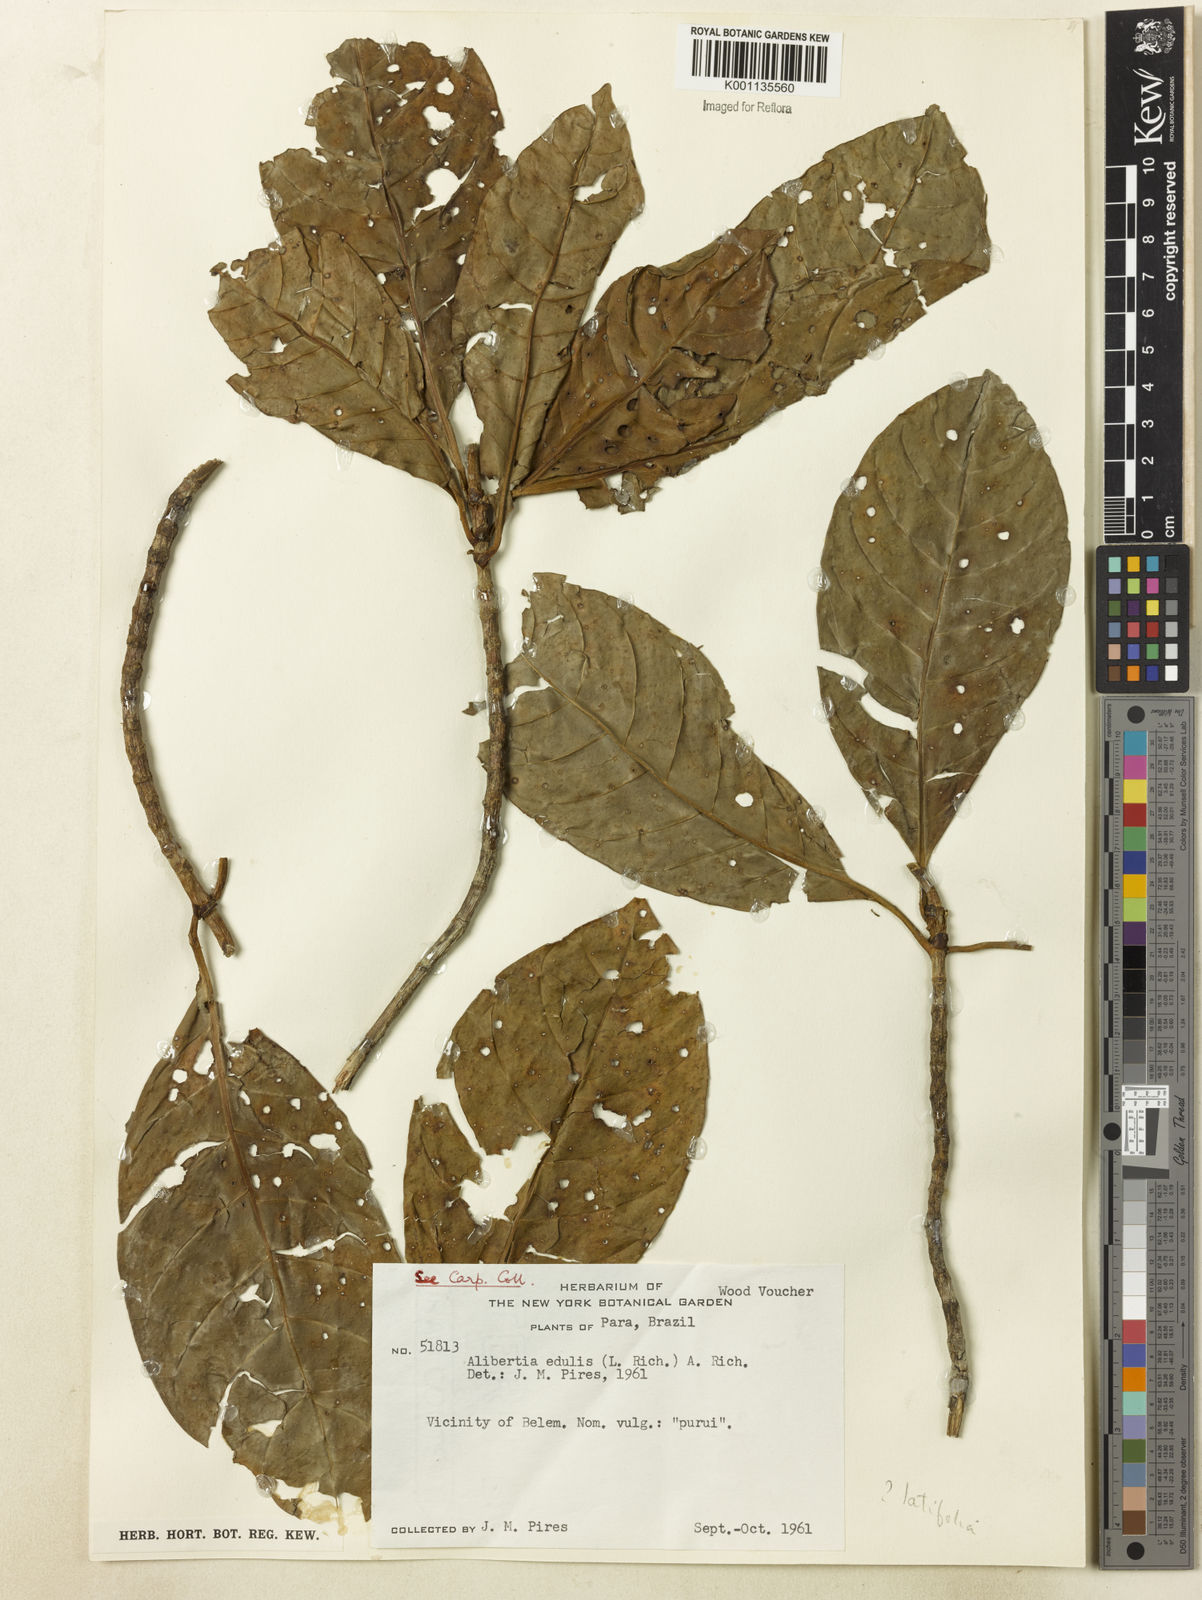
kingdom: Plantae
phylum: Tracheophyta
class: Magnoliopsida
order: Gentianales
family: Rubiaceae
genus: Agouticarpa
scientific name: Agouticarpa curviflora
